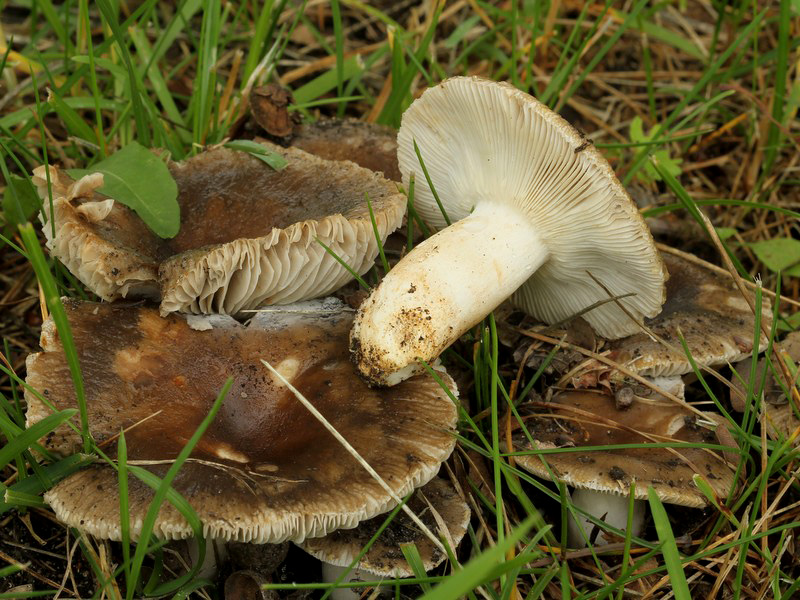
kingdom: Fungi
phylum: Basidiomycota
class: Agaricomycetes
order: Russulales
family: Russulaceae
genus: Russula
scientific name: Russula recondita
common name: mild kam-skørhat
